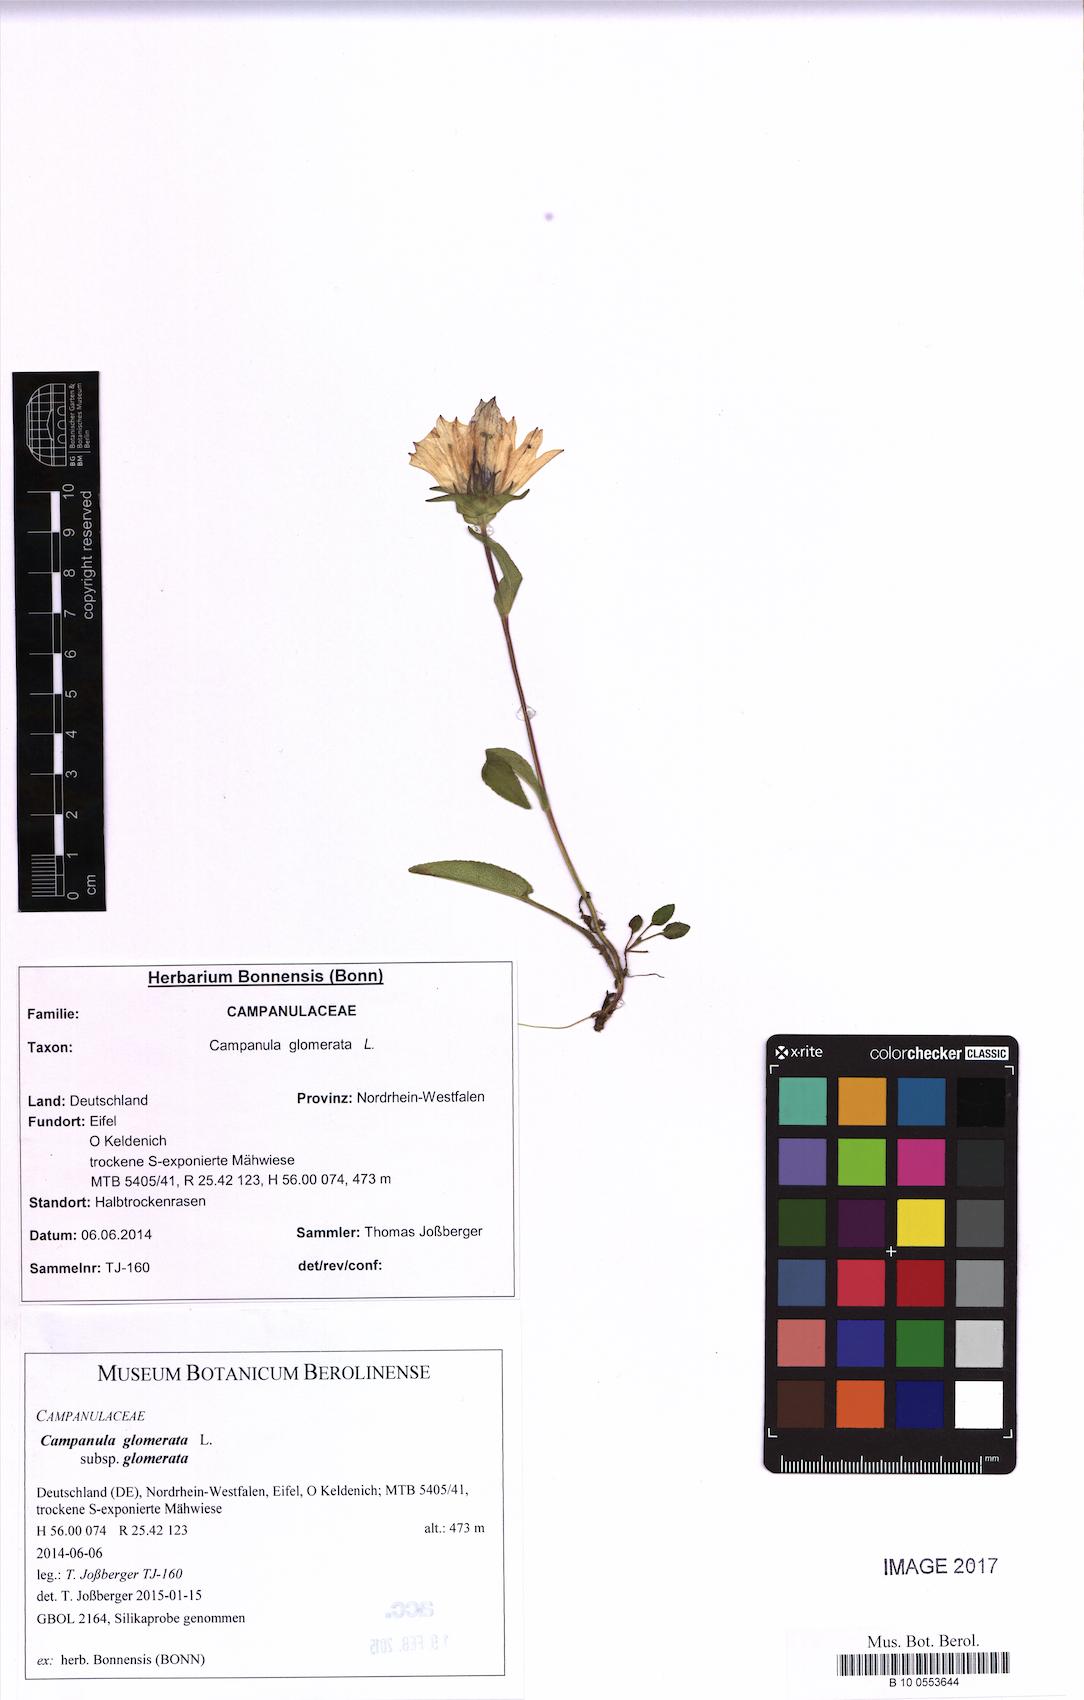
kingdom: Plantae
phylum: Tracheophyta
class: Magnoliopsida
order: Asterales
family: Campanulaceae
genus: Campanula
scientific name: Campanula glomerata
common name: Clustered bellflower
